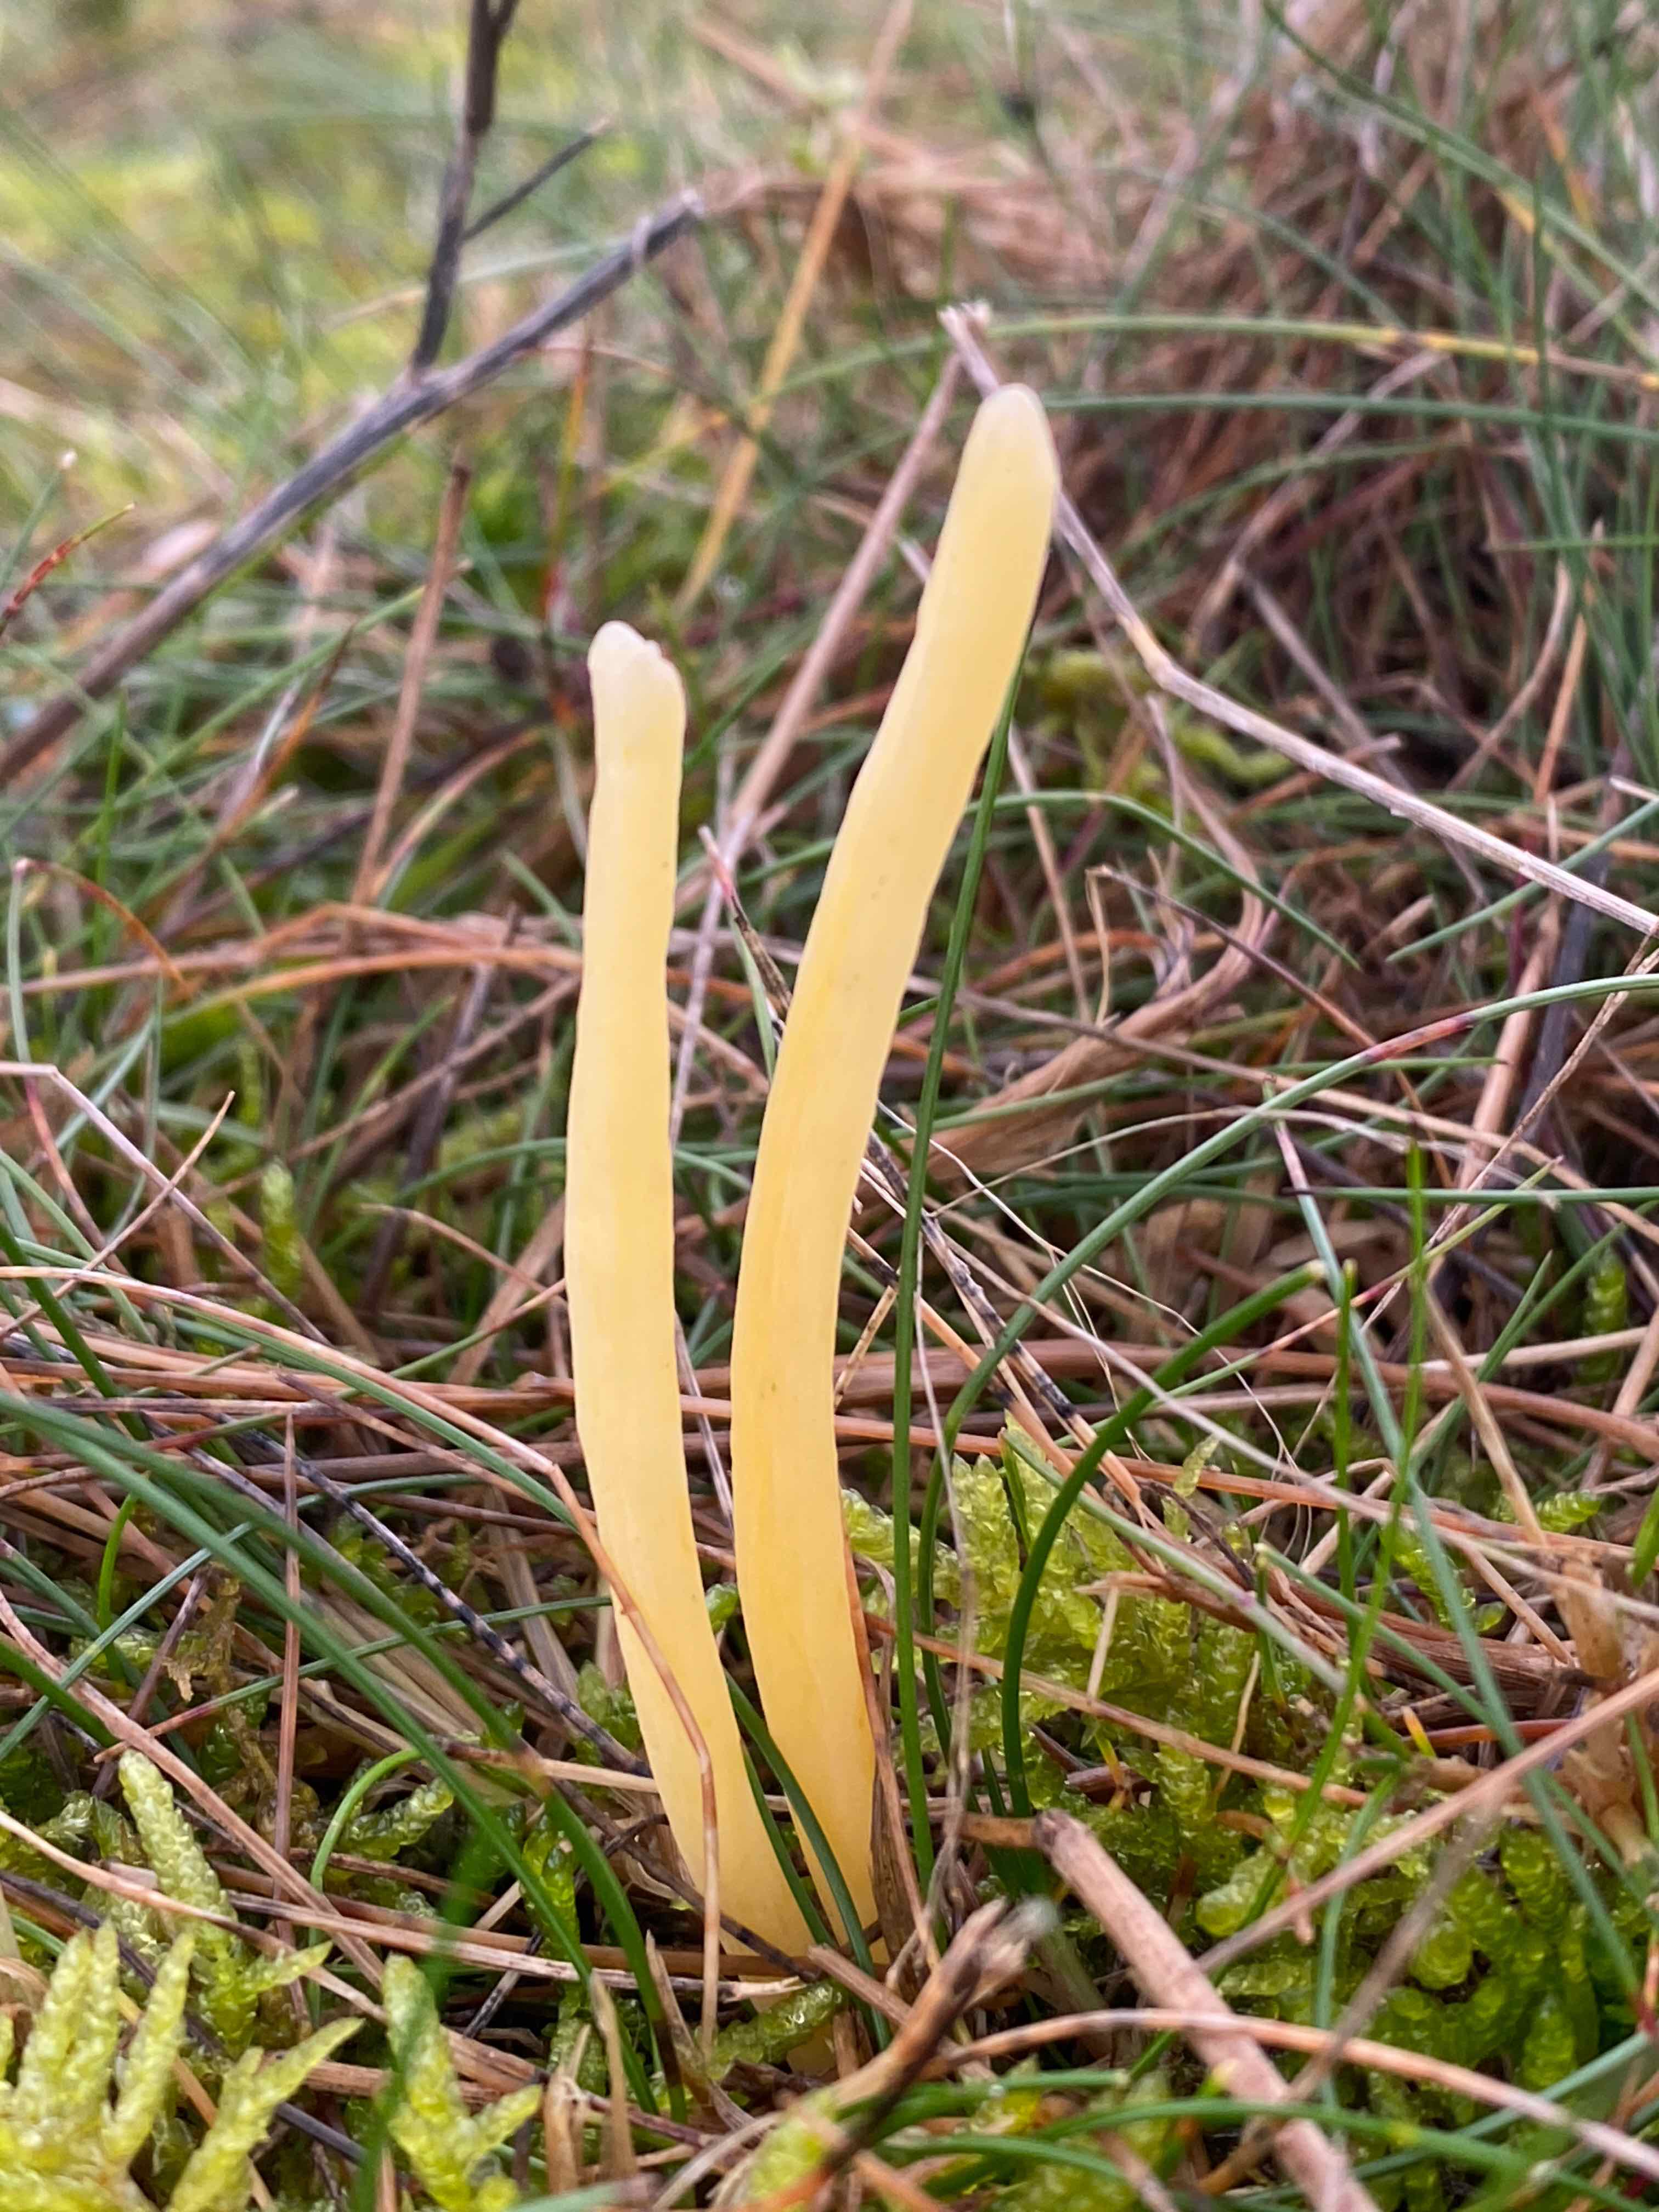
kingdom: Fungi
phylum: Basidiomycota
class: Agaricomycetes
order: Agaricales
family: Clavariaceae
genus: Clavaria
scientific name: Clavaria argillacea
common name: lerfarvet køllesvamp
